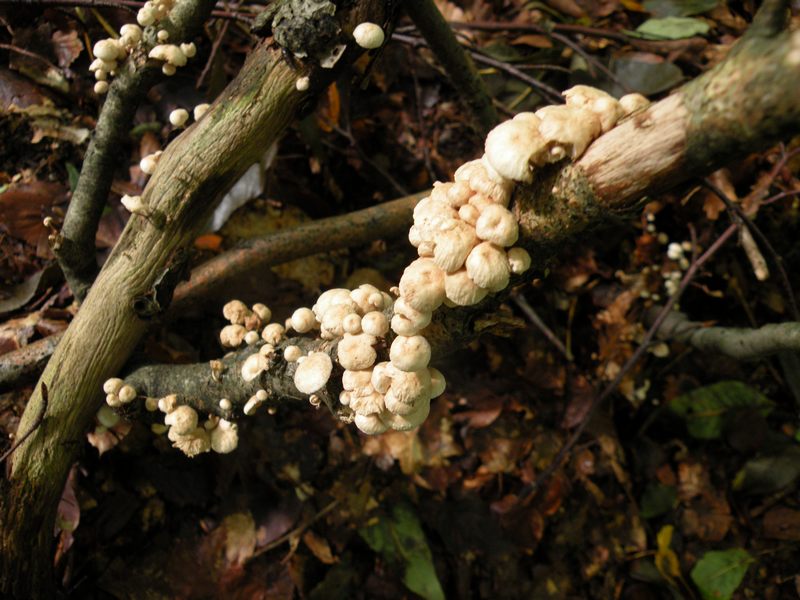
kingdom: Fungi
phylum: Basidiomycota
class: Agaricomycetes
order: Agaricales
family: Omphalotaceae
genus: Collybiopsis
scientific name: Collybiopsis ramealis
